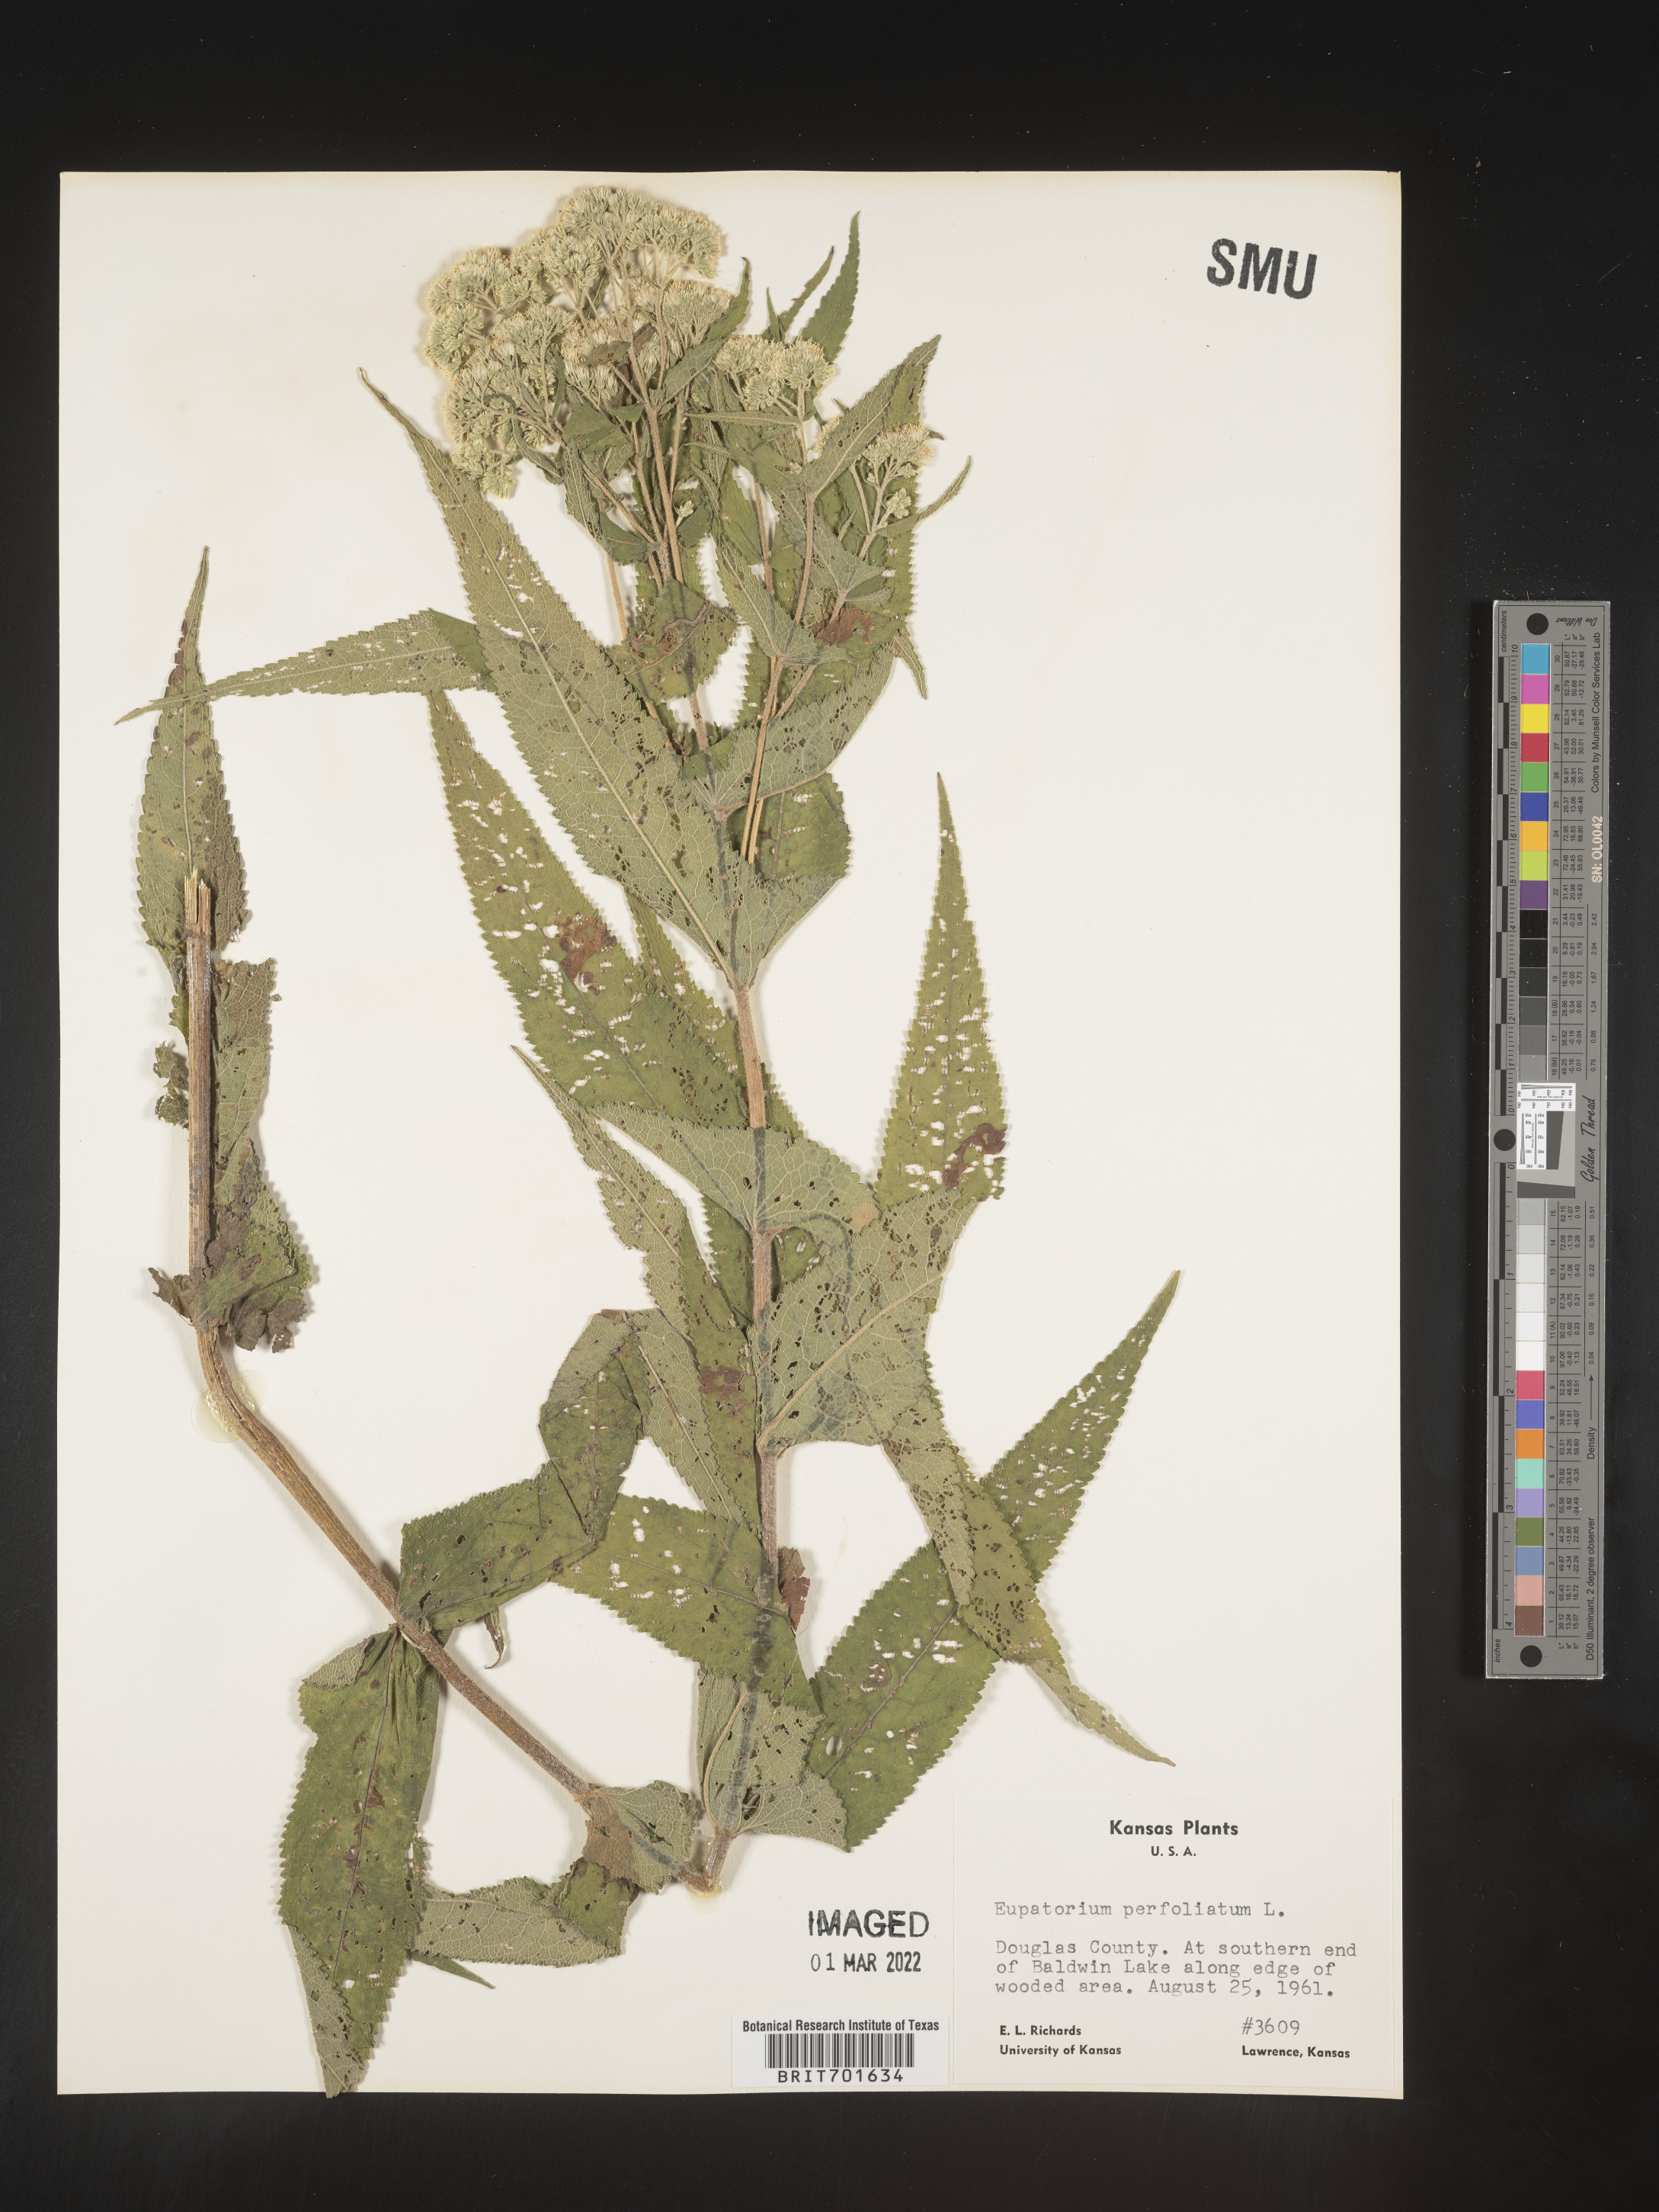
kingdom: Plantae
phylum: Tracheophyta
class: Magnoliopsida
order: Asterales
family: Asteraceae
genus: Eupatorium
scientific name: Eupatorium perfoliatum
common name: Boneset
